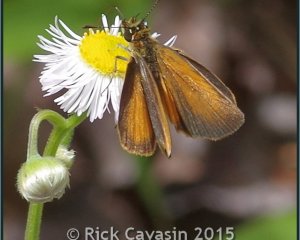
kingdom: Animalia
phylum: Arthropoda
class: Insecta
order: Lepidoptera
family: Hesperiidae
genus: Ancyloxypha
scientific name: Ancyloxypha numitor
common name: Least Skipper
